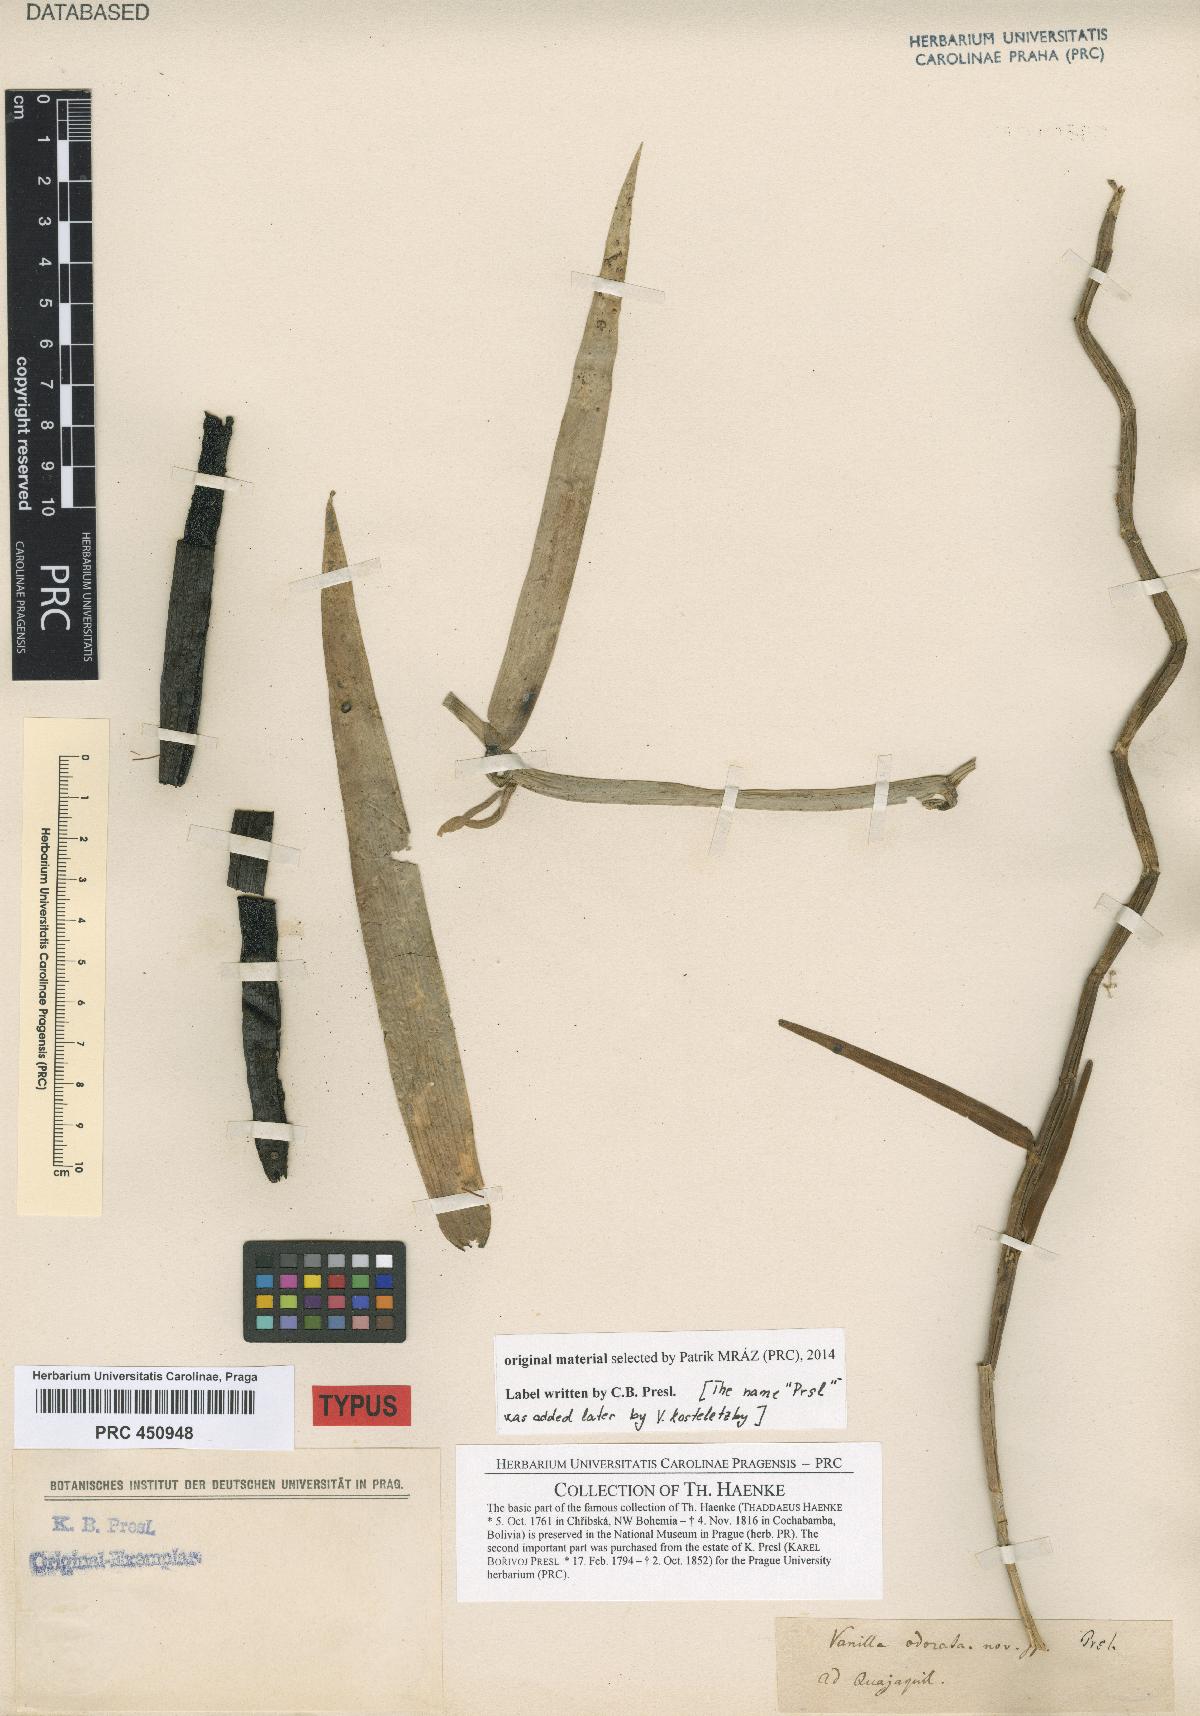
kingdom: Plantae
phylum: Tracheophyta
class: Liliopsida
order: Asparagales
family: Orchidaceae
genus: Vanilla
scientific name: Vanilla odorata
